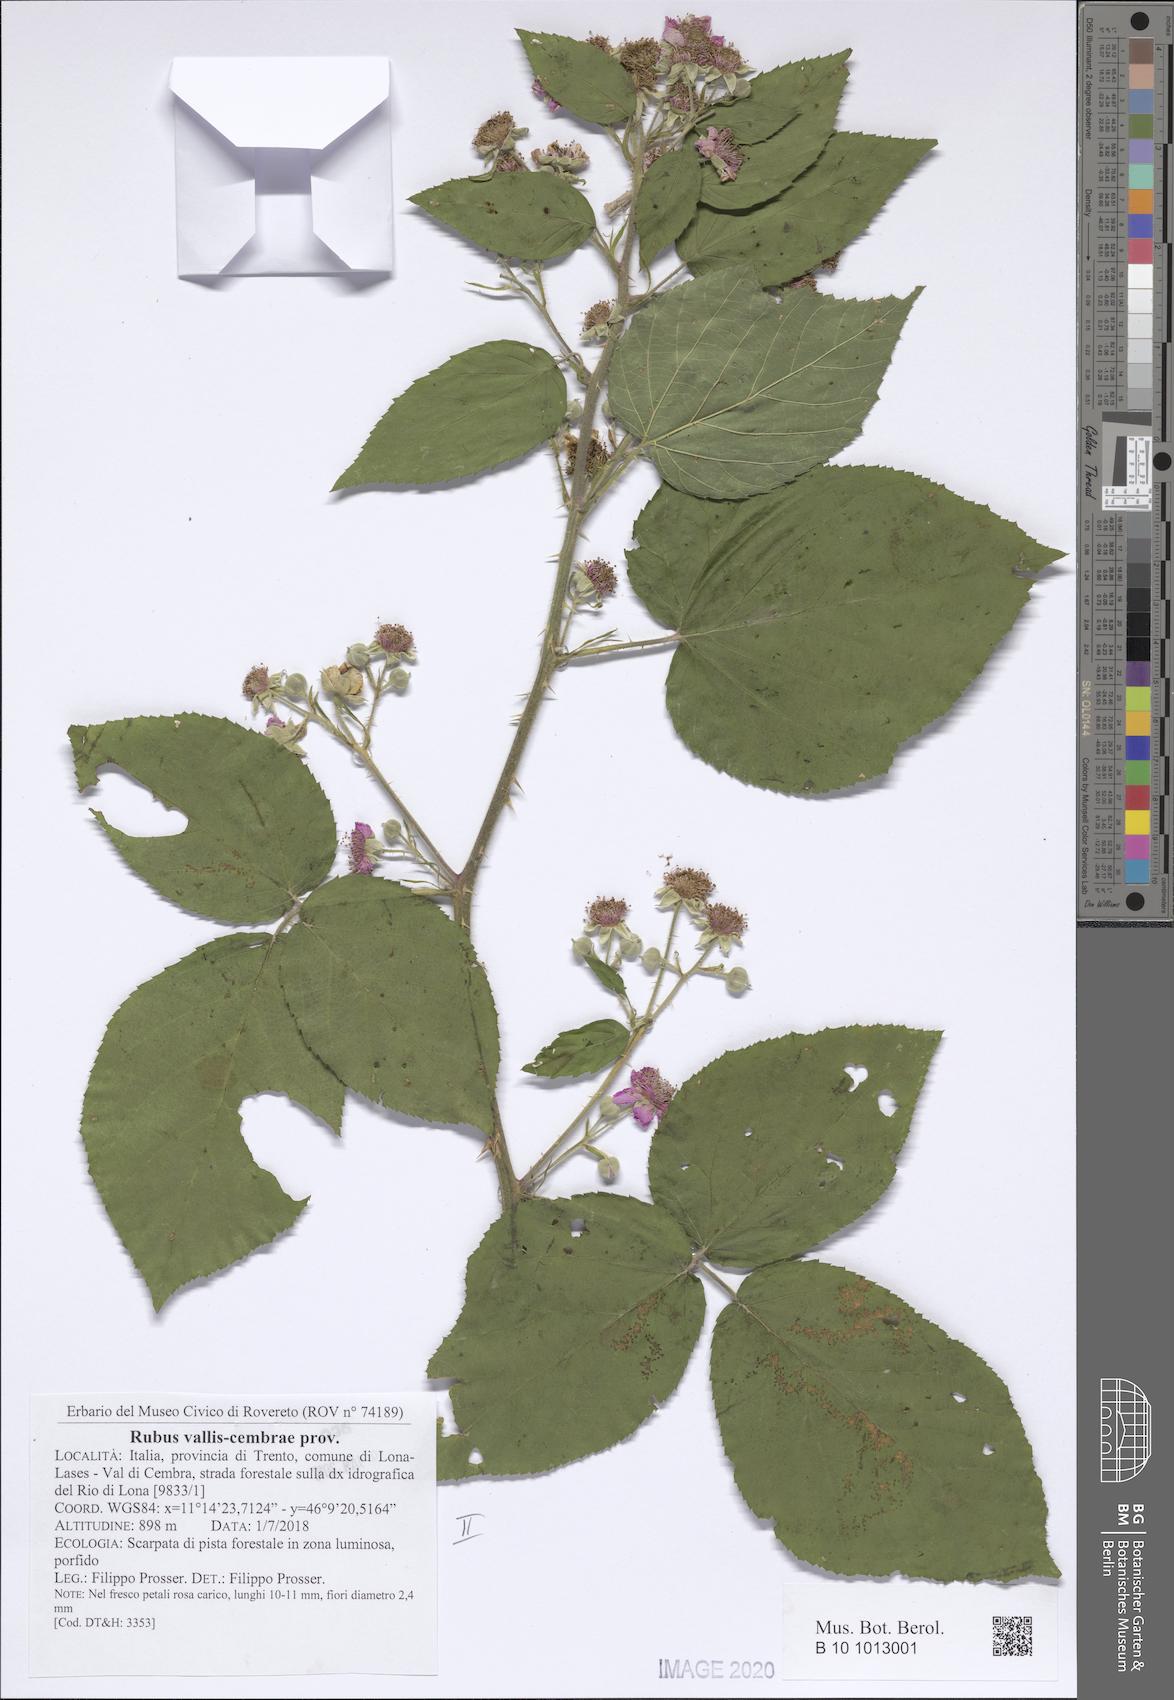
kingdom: Plantae
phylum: Tracheophyta
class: Magnoliopsida
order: Rosales
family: Rosaceae
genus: Rubus
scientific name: Rubus vallis-cembrae
